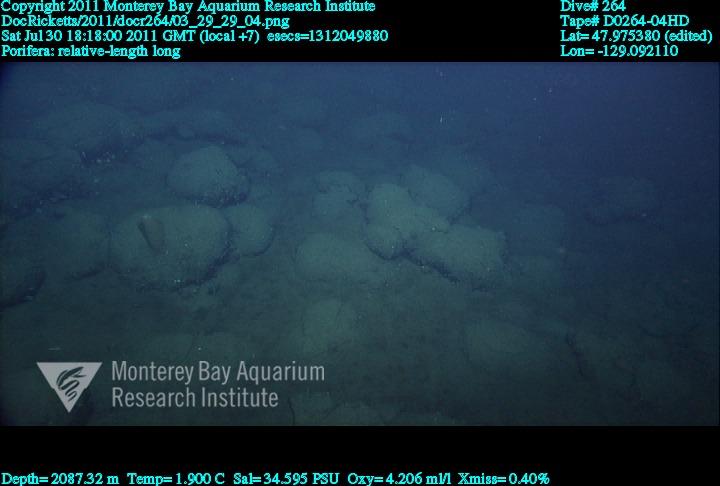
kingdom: Animalia
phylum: Porifera
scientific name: Porifera
